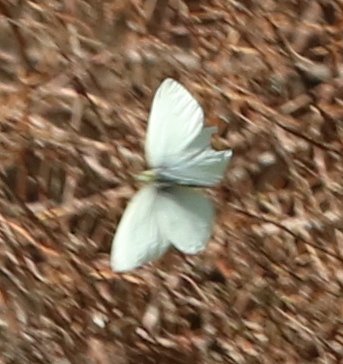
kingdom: Animalia
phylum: Arthropoda
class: Insecta
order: Lepidoptera
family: Pieridae
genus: Pieris
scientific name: Pieris rapae
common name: Cabbage White
